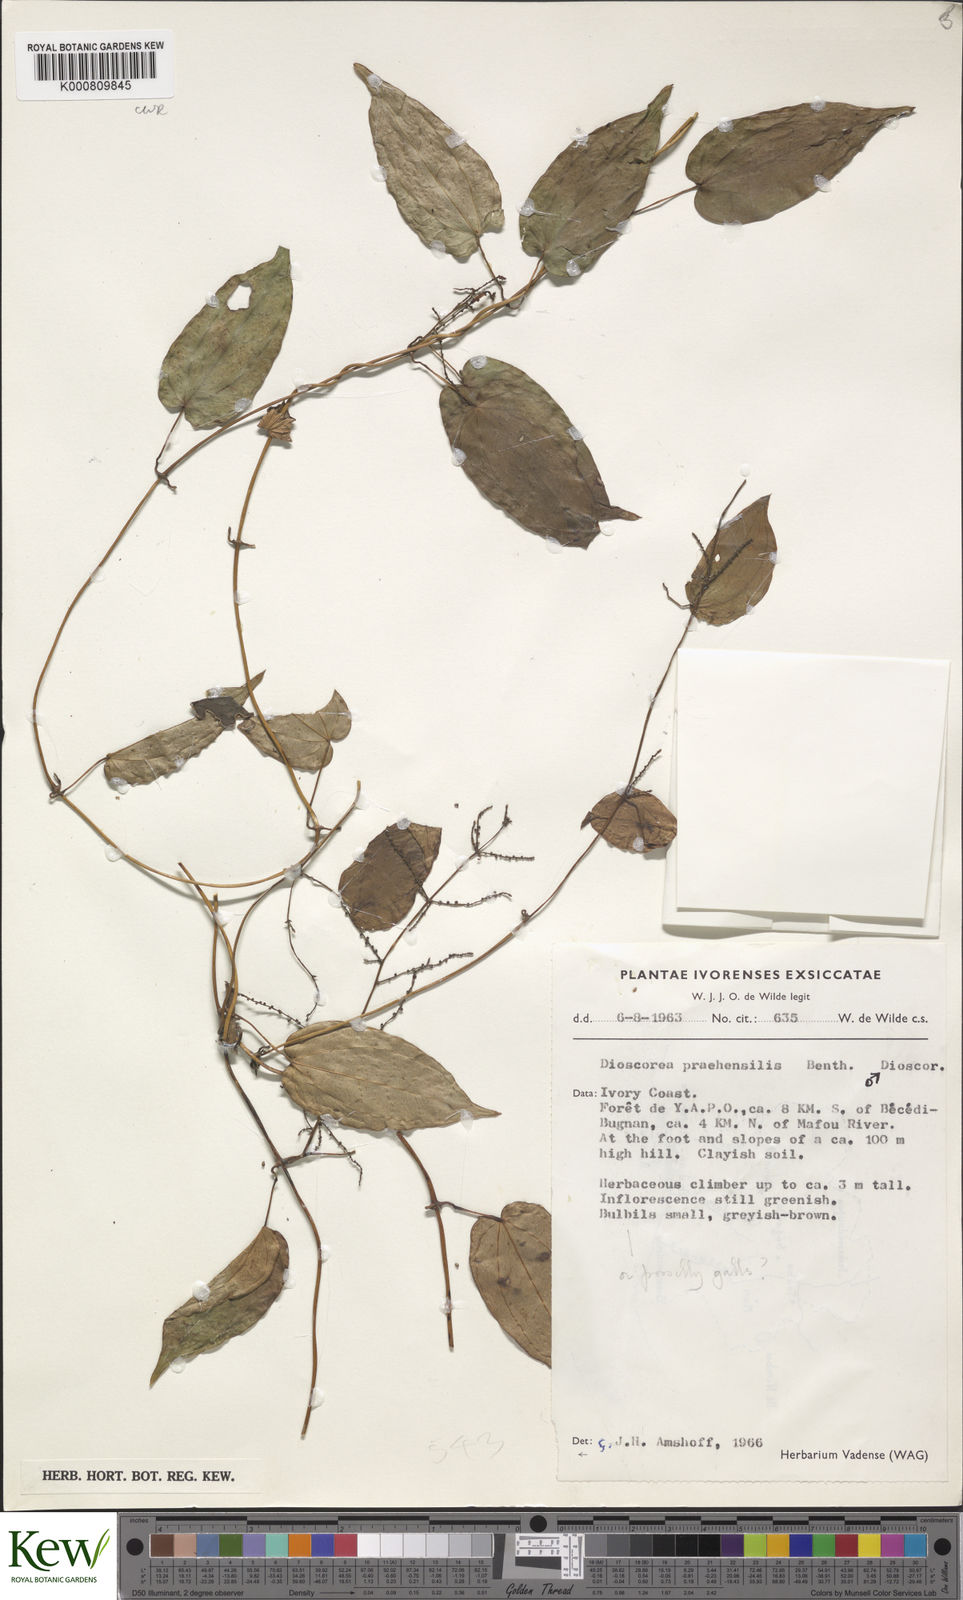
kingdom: Plantae
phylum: Tracheophyta
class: Liliopsida
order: Dioscoreales
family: Dioscoreaceae
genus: Dioscorea
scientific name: Dioscorea praehensilis
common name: Bush yam
